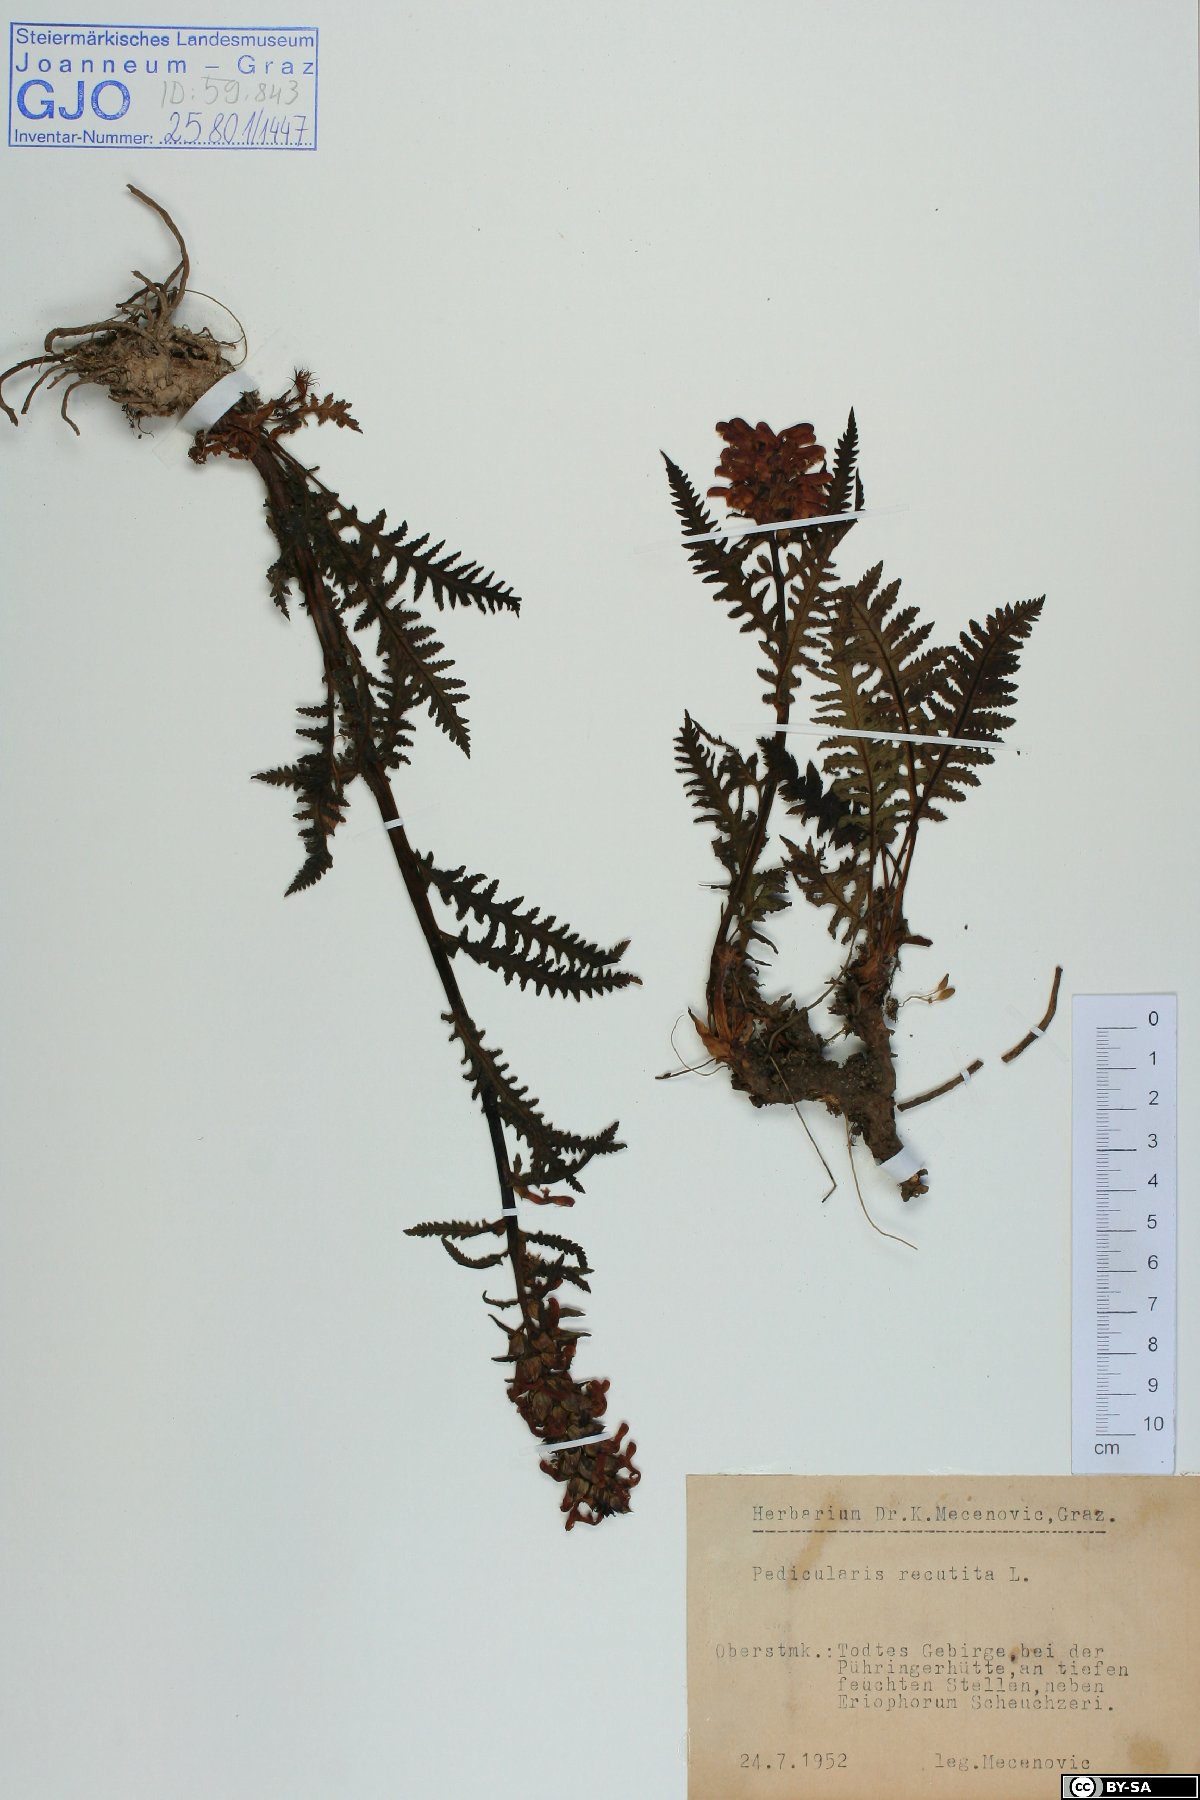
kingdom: Plantae
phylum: Tracheophyta
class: Magnoliopsida
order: Lamiales
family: Orobanchaceae
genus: Pedicularis
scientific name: Pedicularis recutita
